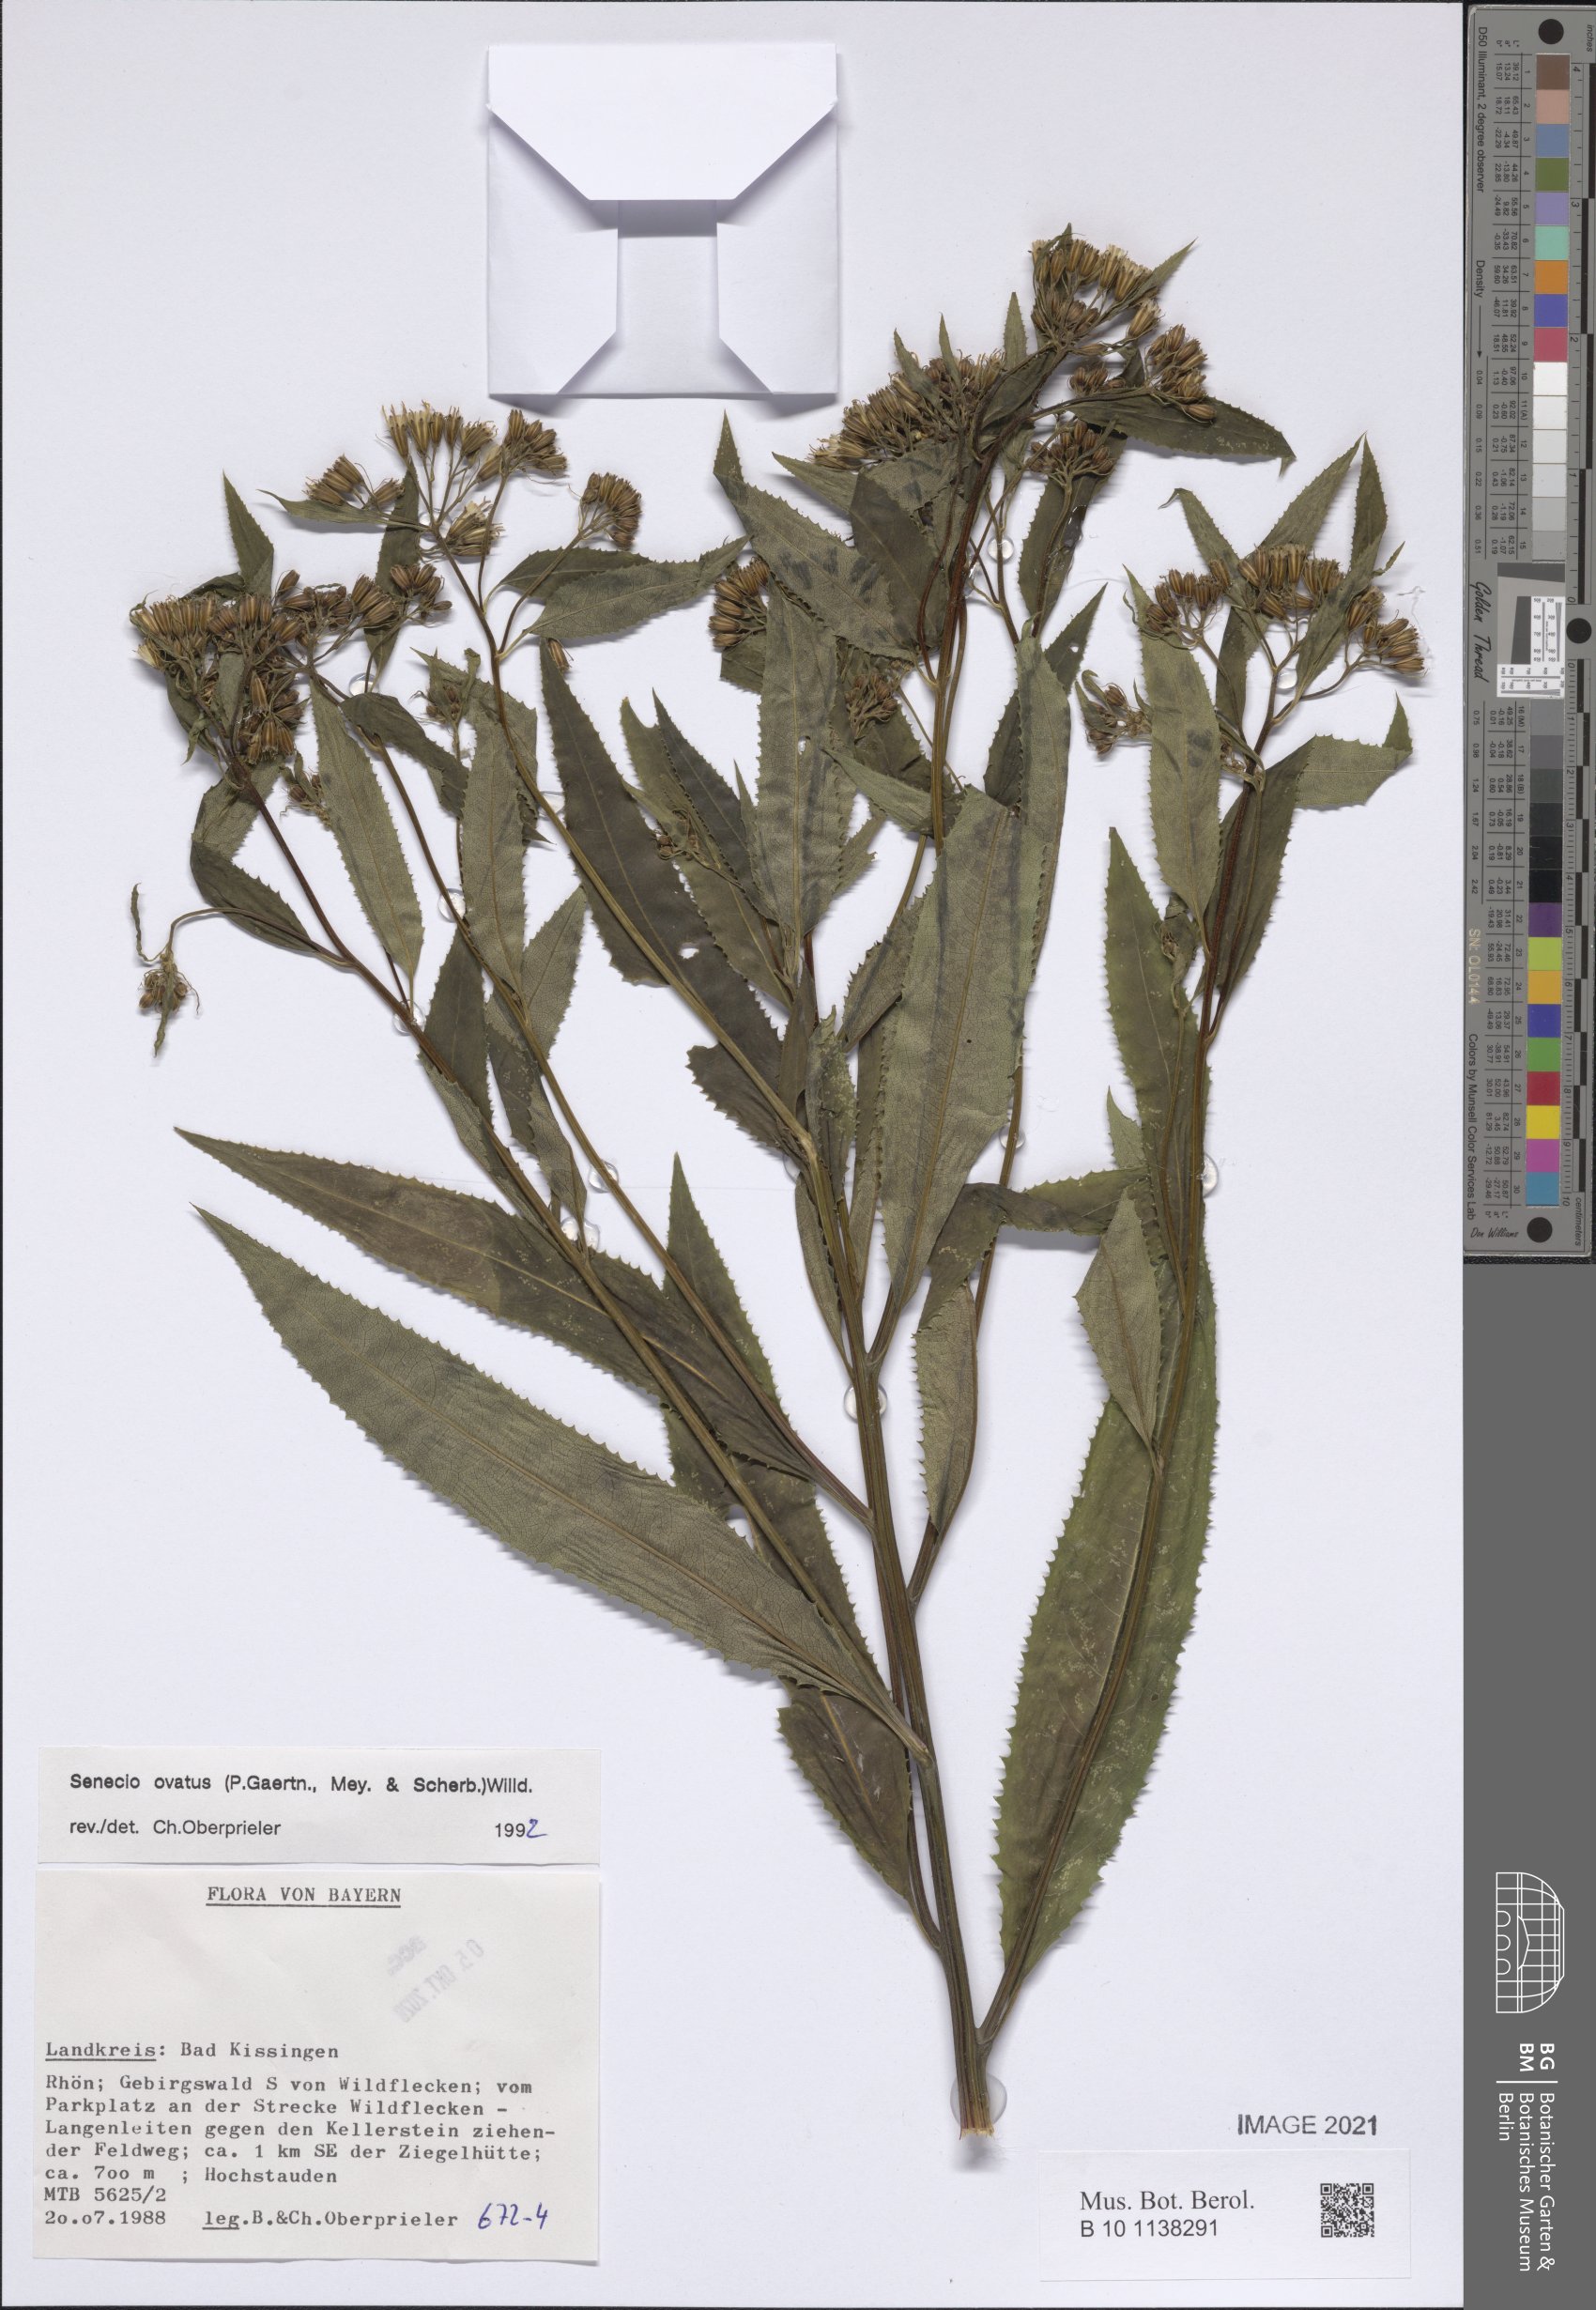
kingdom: Plantae
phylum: Tracheophyta
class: Magnoliopsida
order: Asterales
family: Asteraceae
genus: Senecio
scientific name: Senecio ovatus
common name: Wood ragwort
